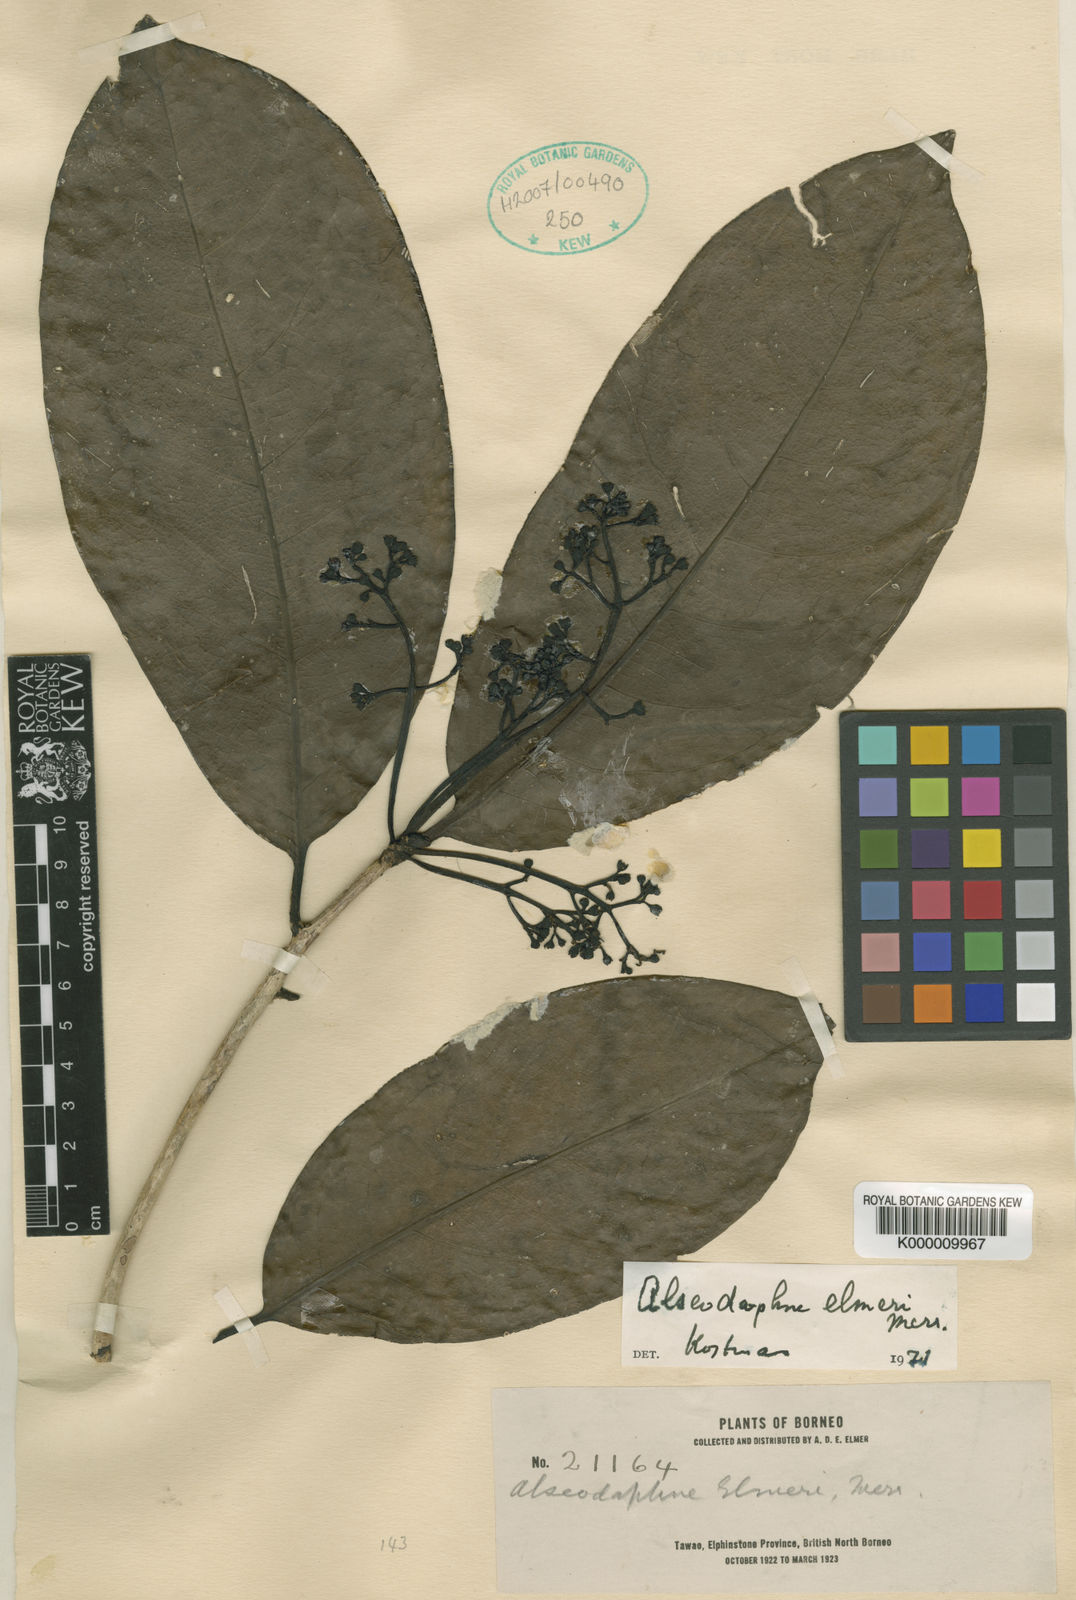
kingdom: Plantae
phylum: Tracheophyta
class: Magnoliopsida
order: Laurales
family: Lauraceae
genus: Alseodaphne
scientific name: Alseodaphne elmeri
